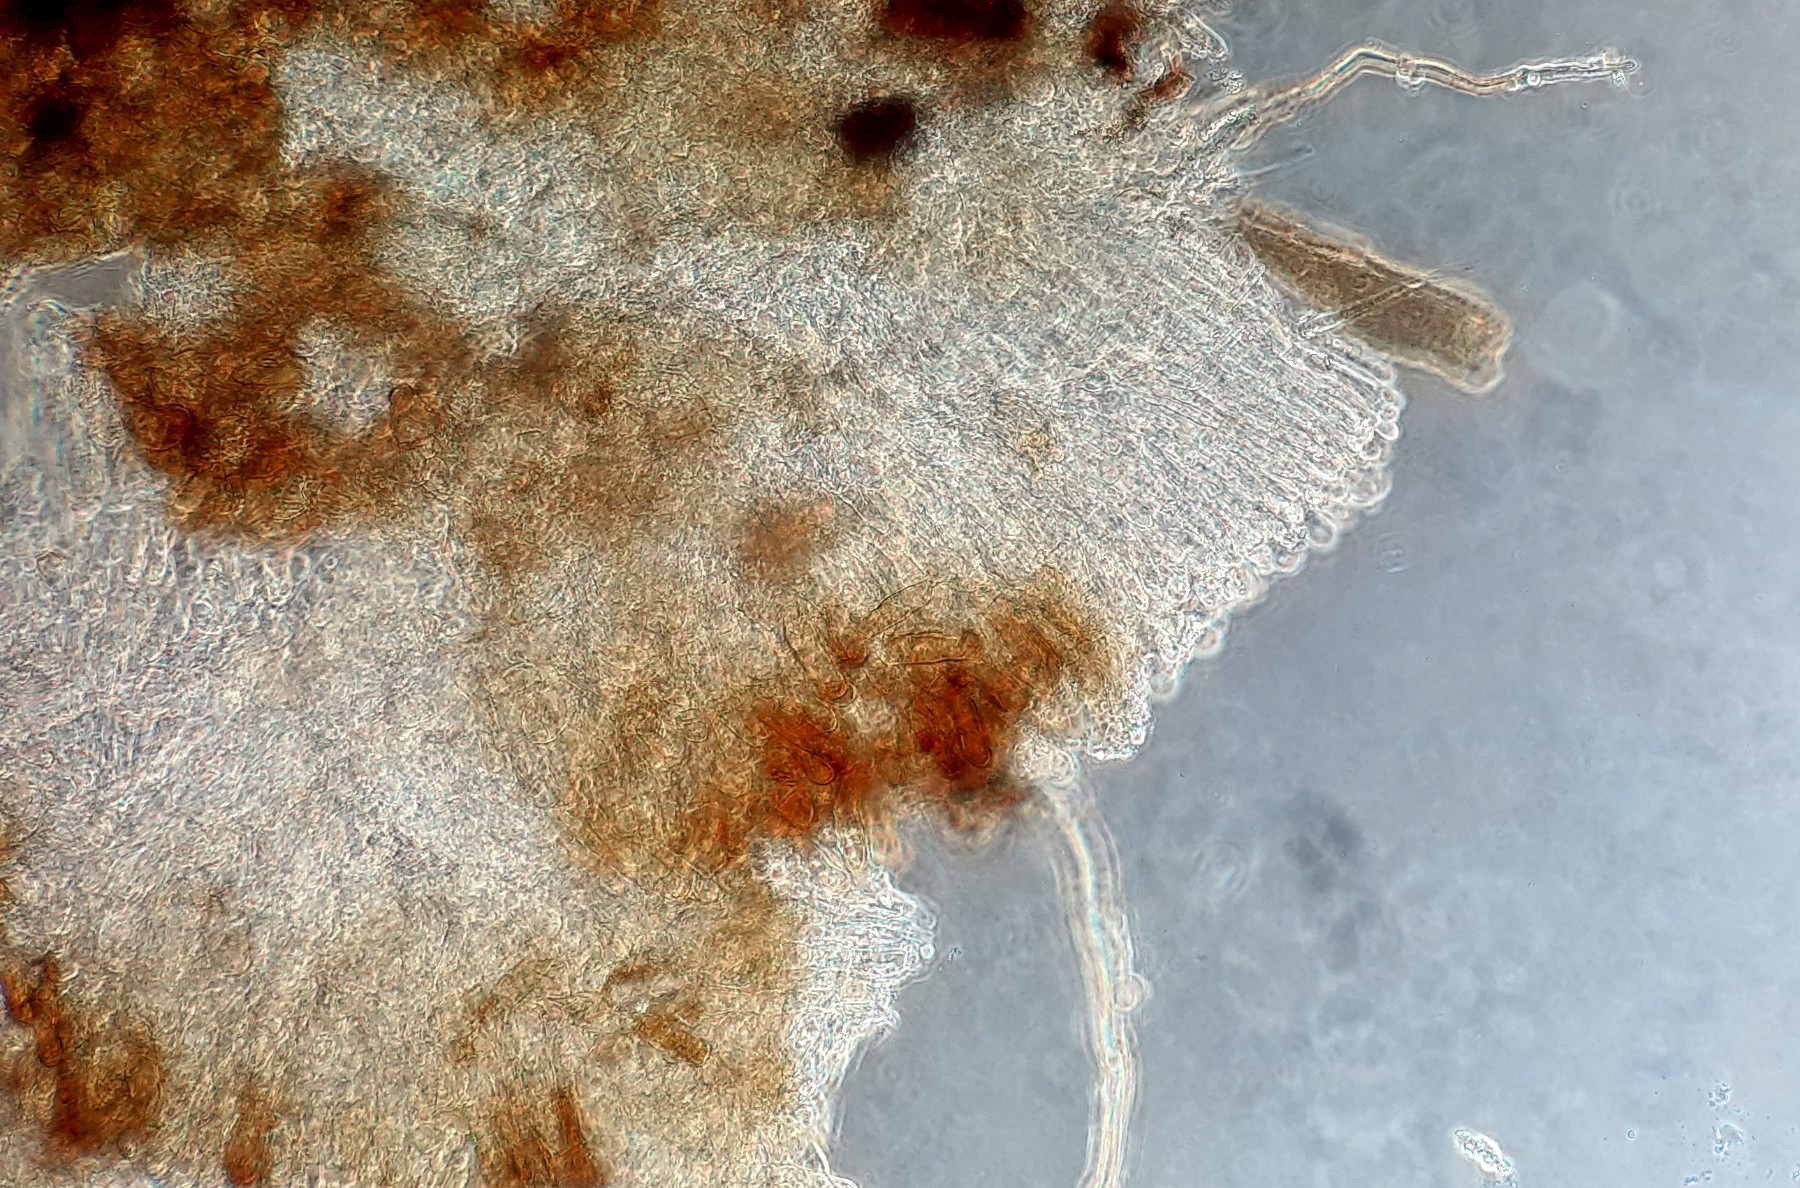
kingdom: Fungi
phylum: Ascomycota
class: Pezizomycetes
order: Pezizales
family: Pyronemataceae
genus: Geopora
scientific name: Geopora arenicola
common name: trøffel-jordbæger
